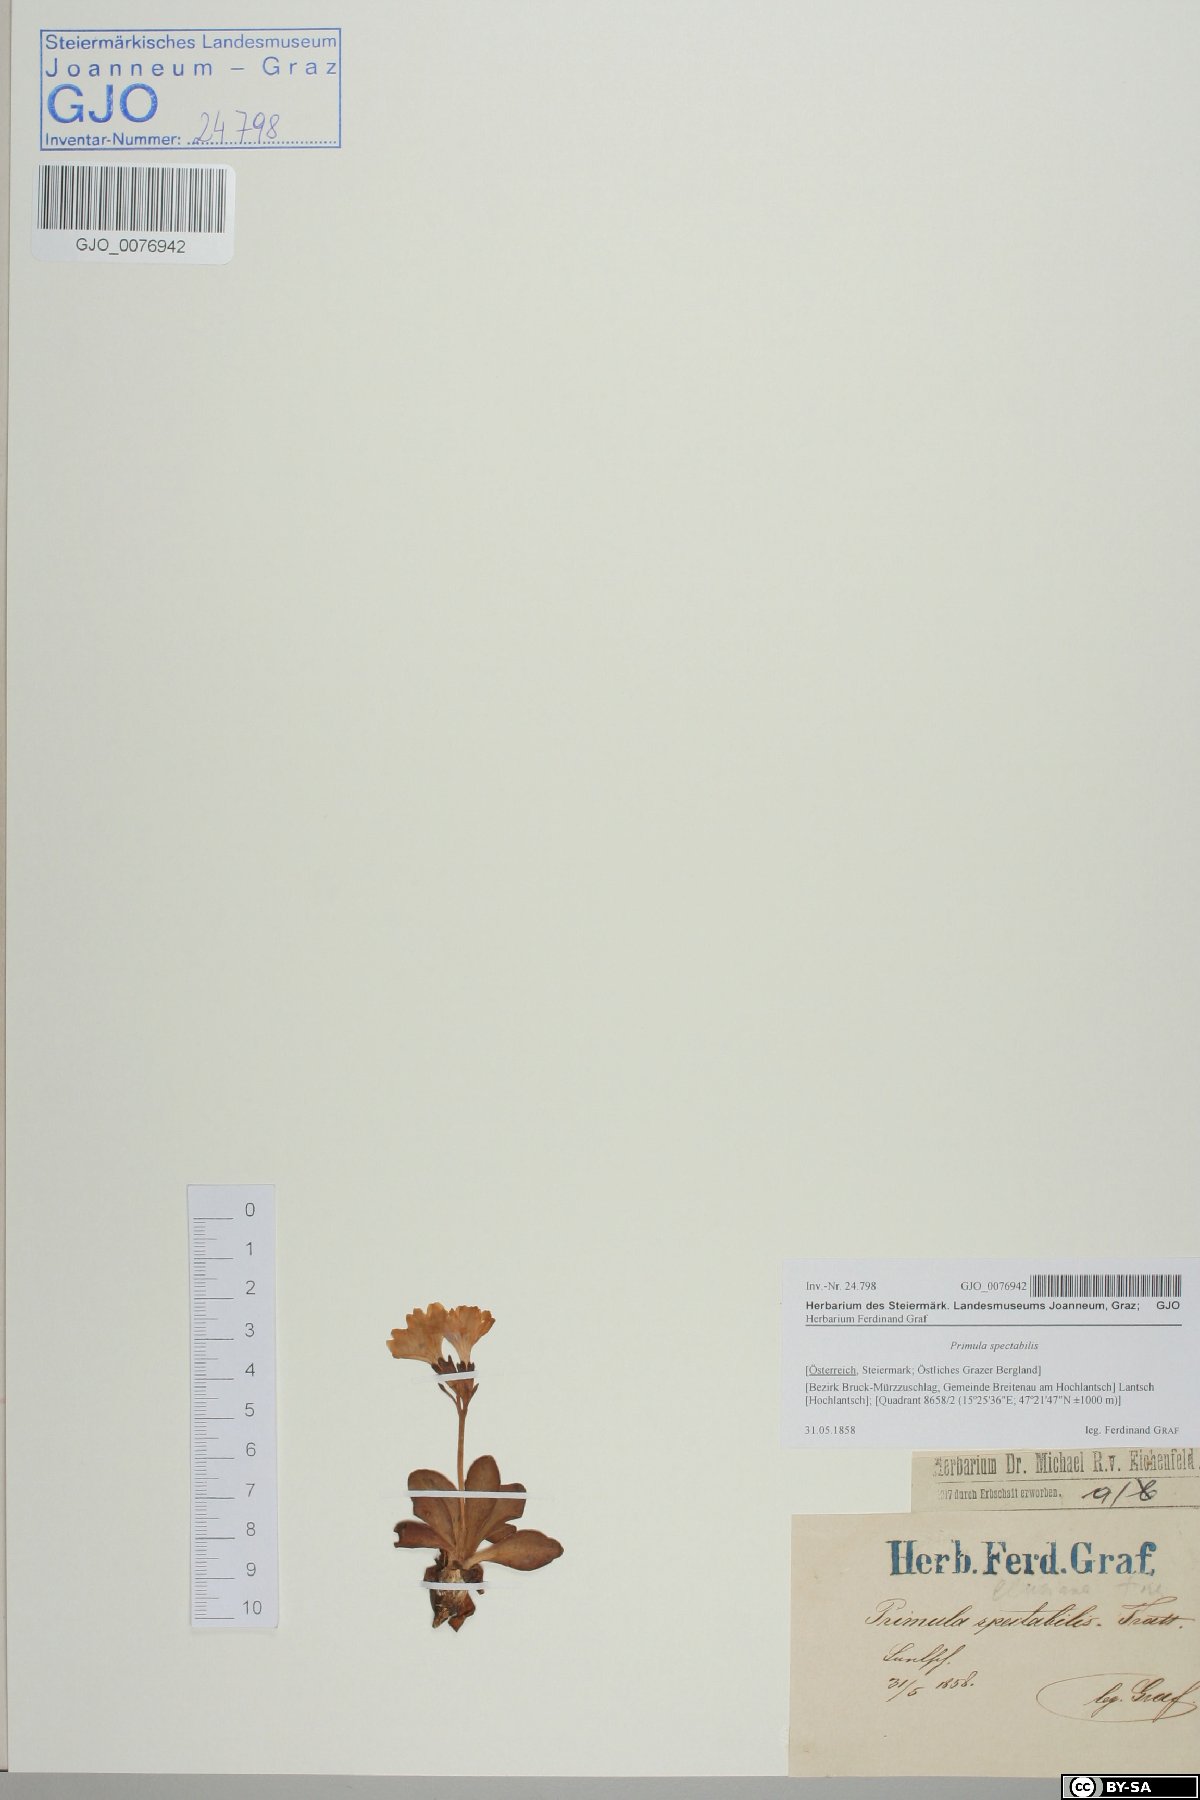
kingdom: Plantae
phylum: Tracheophyta
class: Magnoliopsida
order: Ericales
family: Primulaceae
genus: Primula
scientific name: Primula clusiana
